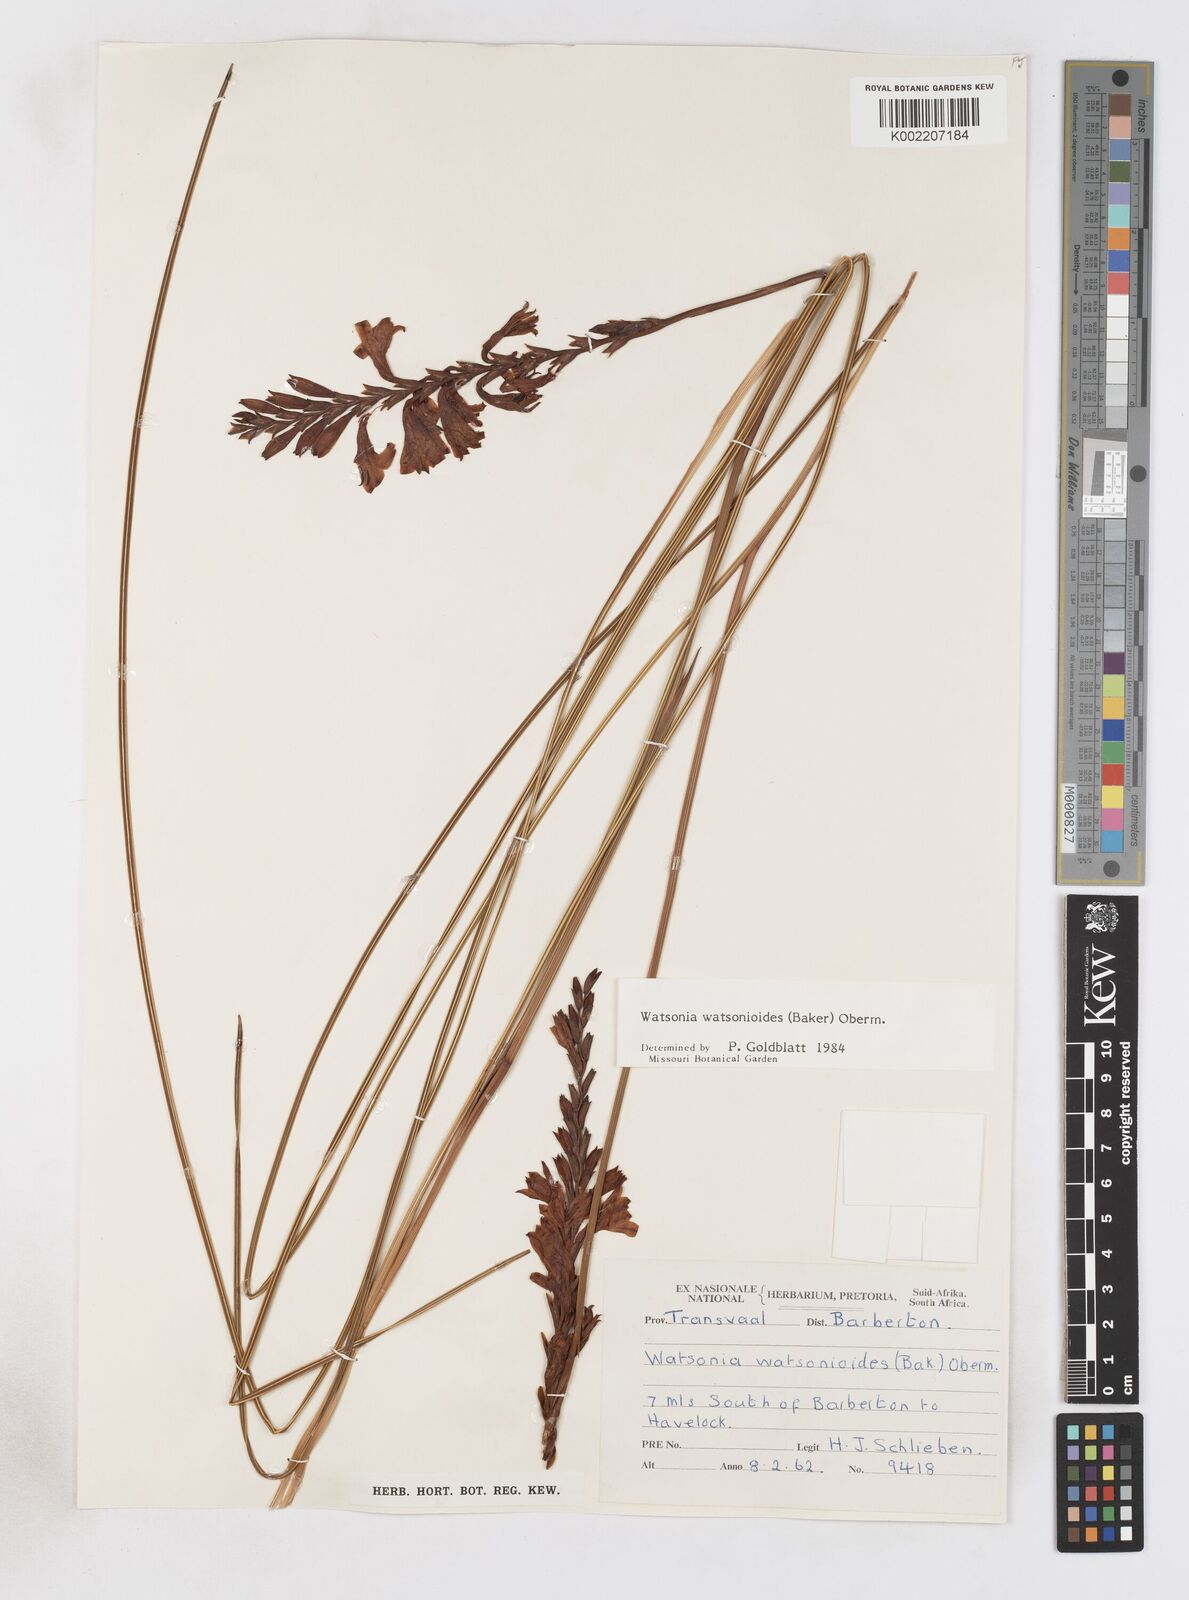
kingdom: Plantae
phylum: Tracheophyta
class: Liliopsida
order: Asparagales
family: Iridaceae
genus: Watsonia
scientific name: Watsonia watsonioides
